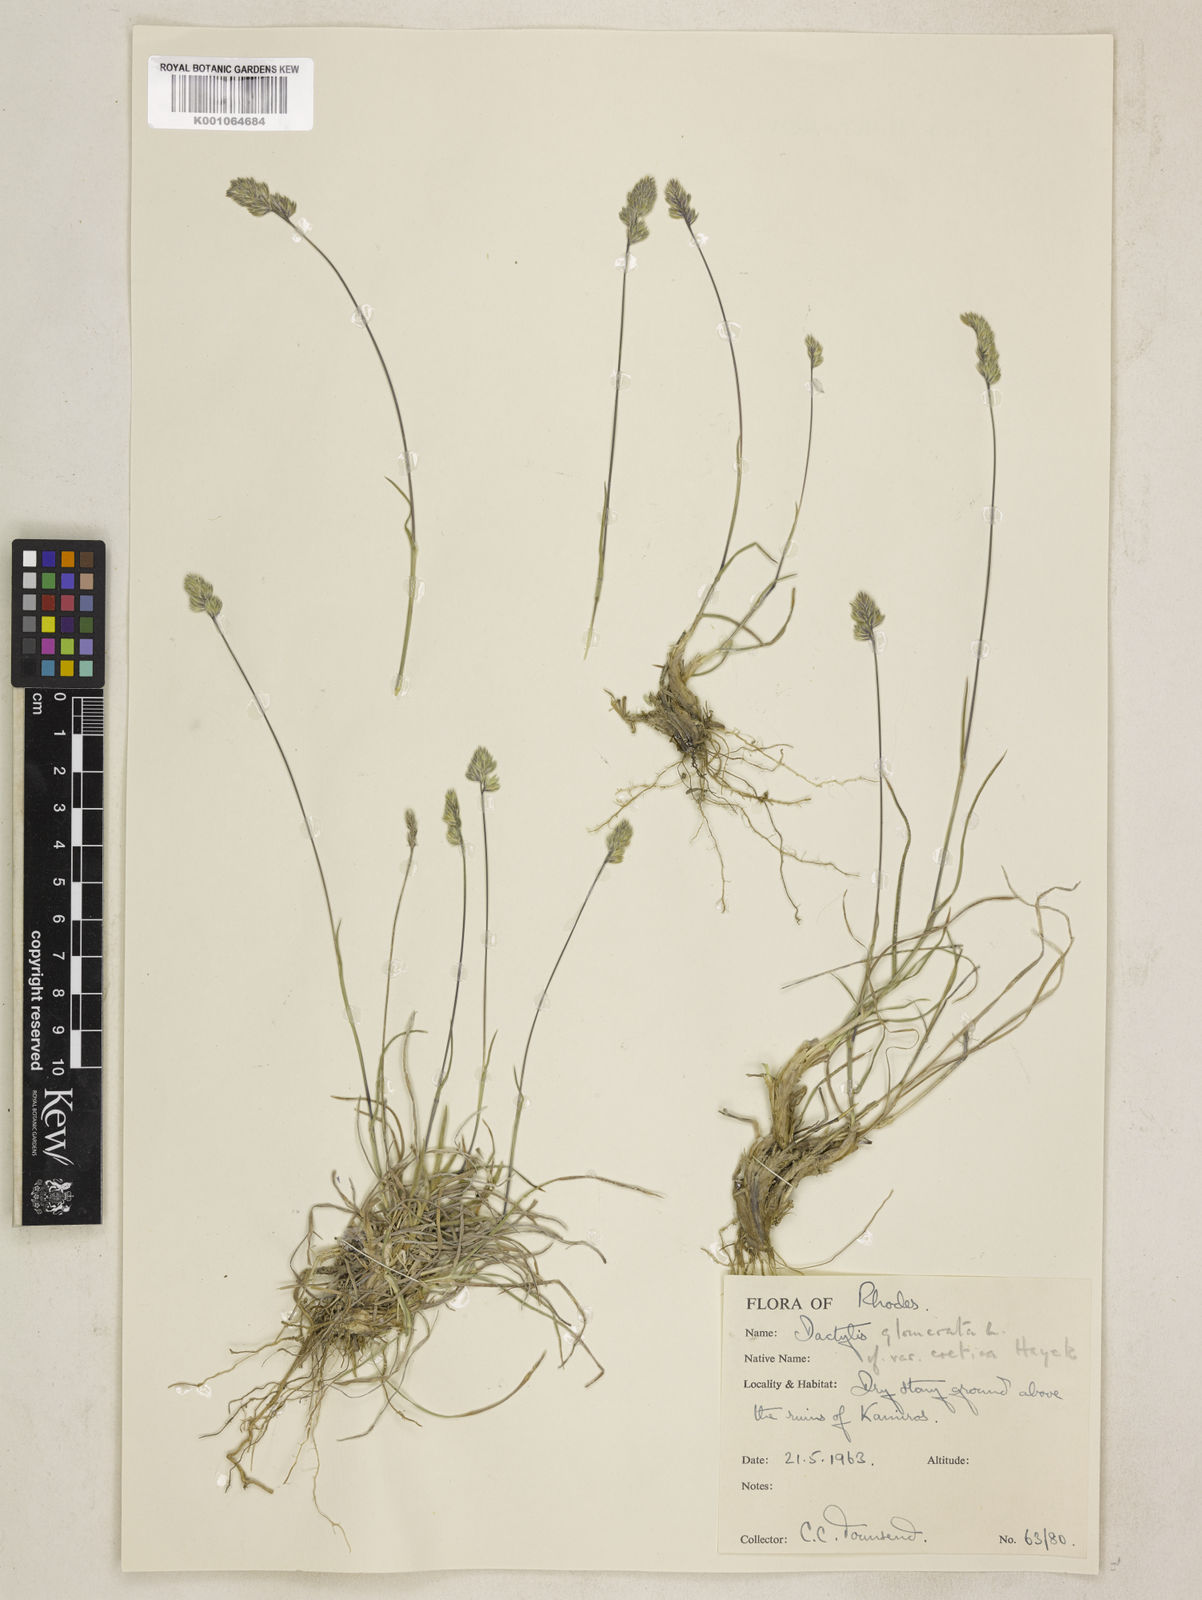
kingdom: Plantae
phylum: Tracheophyta
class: Liliopsida
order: Poales
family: Poaceae
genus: Dactylis
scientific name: Dactylis glomerata
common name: Orchardgrass
